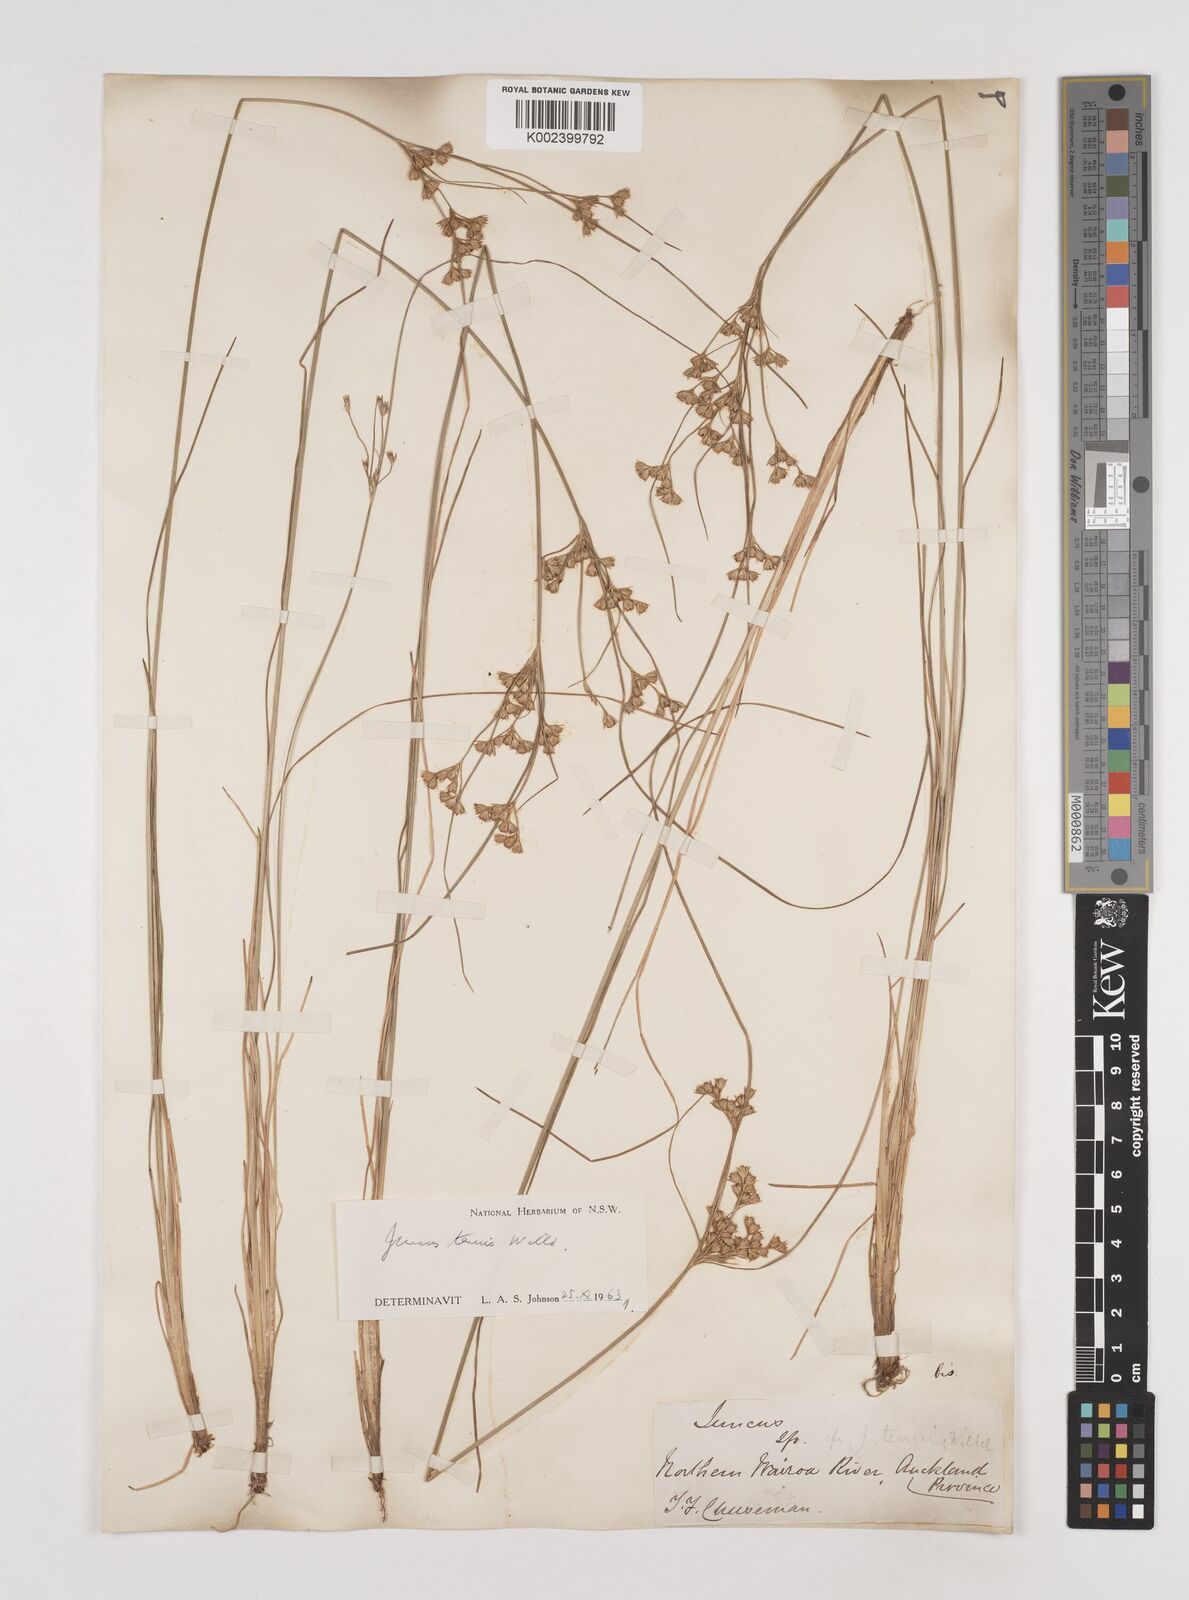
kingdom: Plantae
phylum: Tracheophyta
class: Liliopsida
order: Poales
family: Juncaceae
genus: Juncus
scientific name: Juncus tenuis
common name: Slender rush
